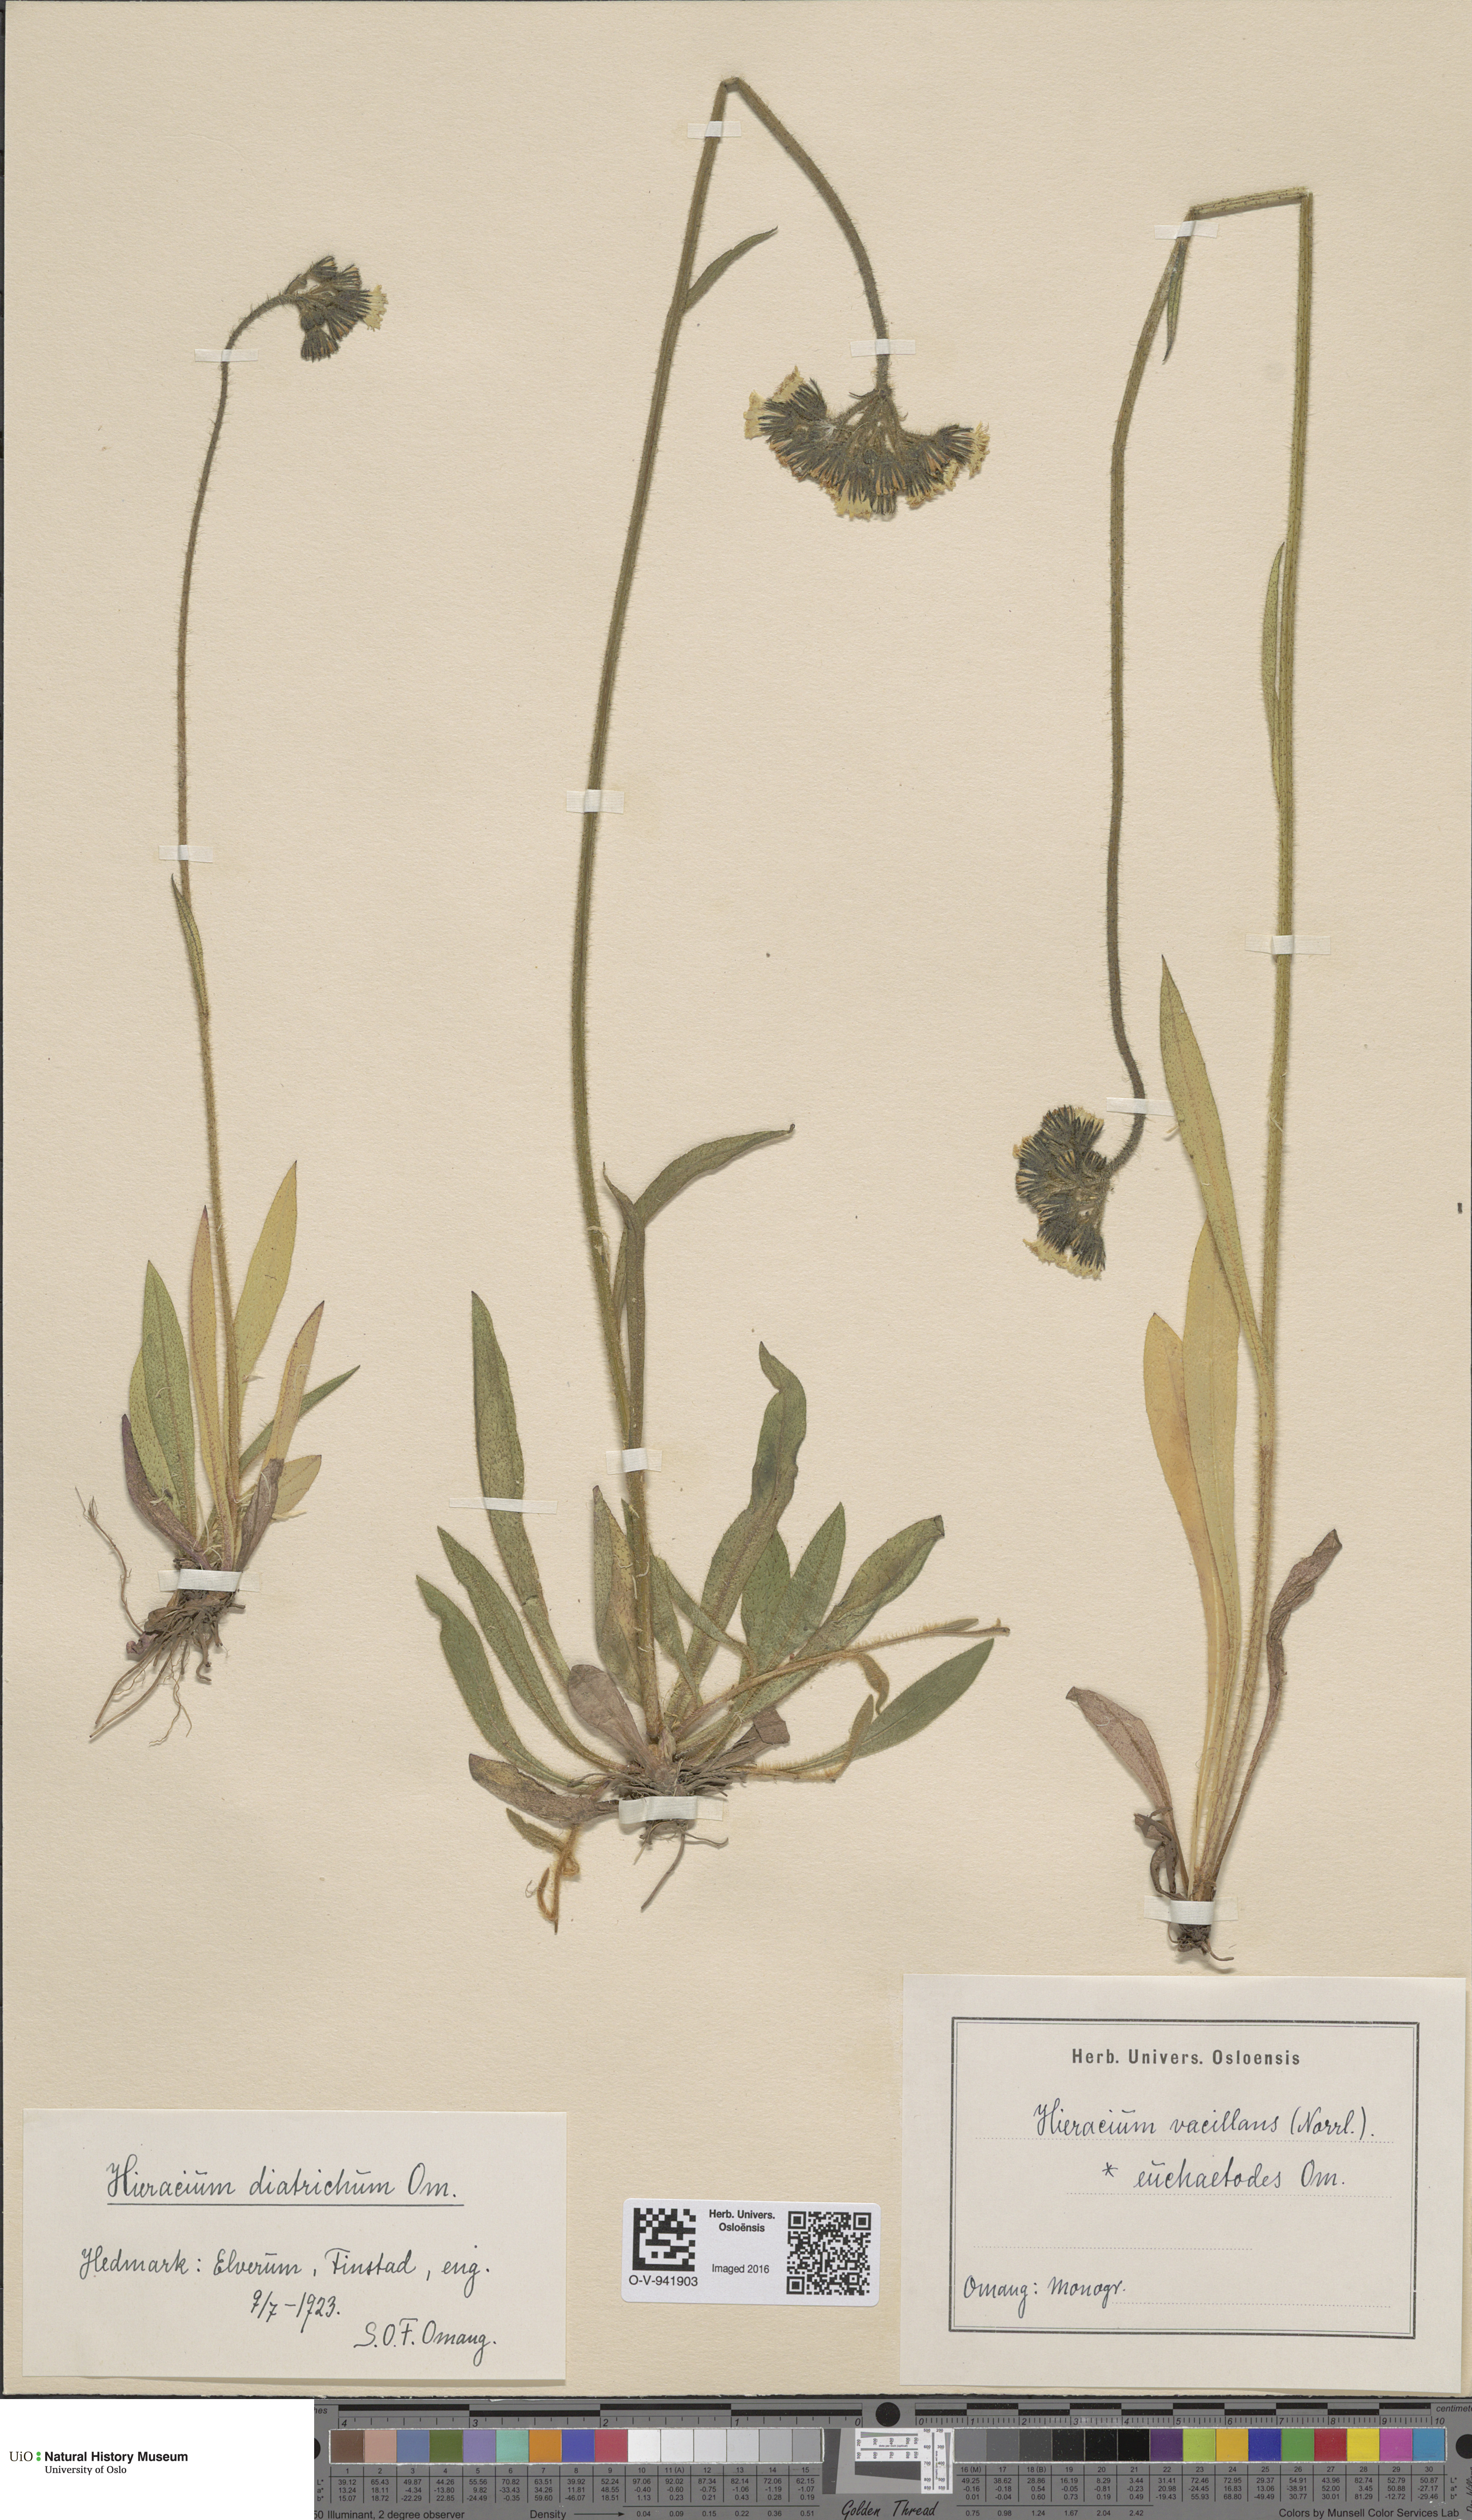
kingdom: Plantae
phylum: Tracheophyta
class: Magnoliopsida
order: Asterales
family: Asteraceae
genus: Pilosella
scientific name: Pilosella glomerata
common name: Queen devil hawkweed
